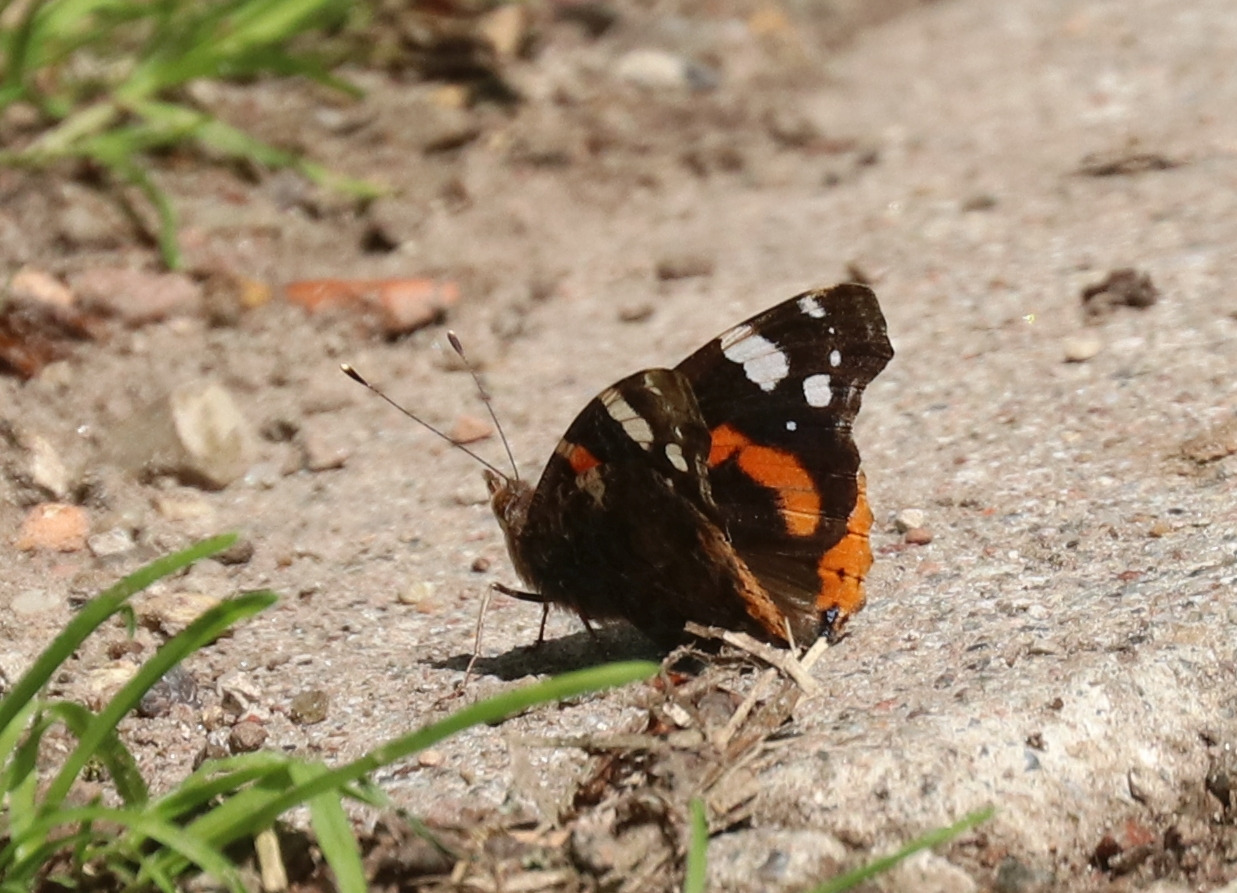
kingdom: Animalia
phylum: Arthropoda
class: Insecta
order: Lepidoptera
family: Nymphalidae
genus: Vanessa
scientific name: Vanessa atalanta
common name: Admiral
